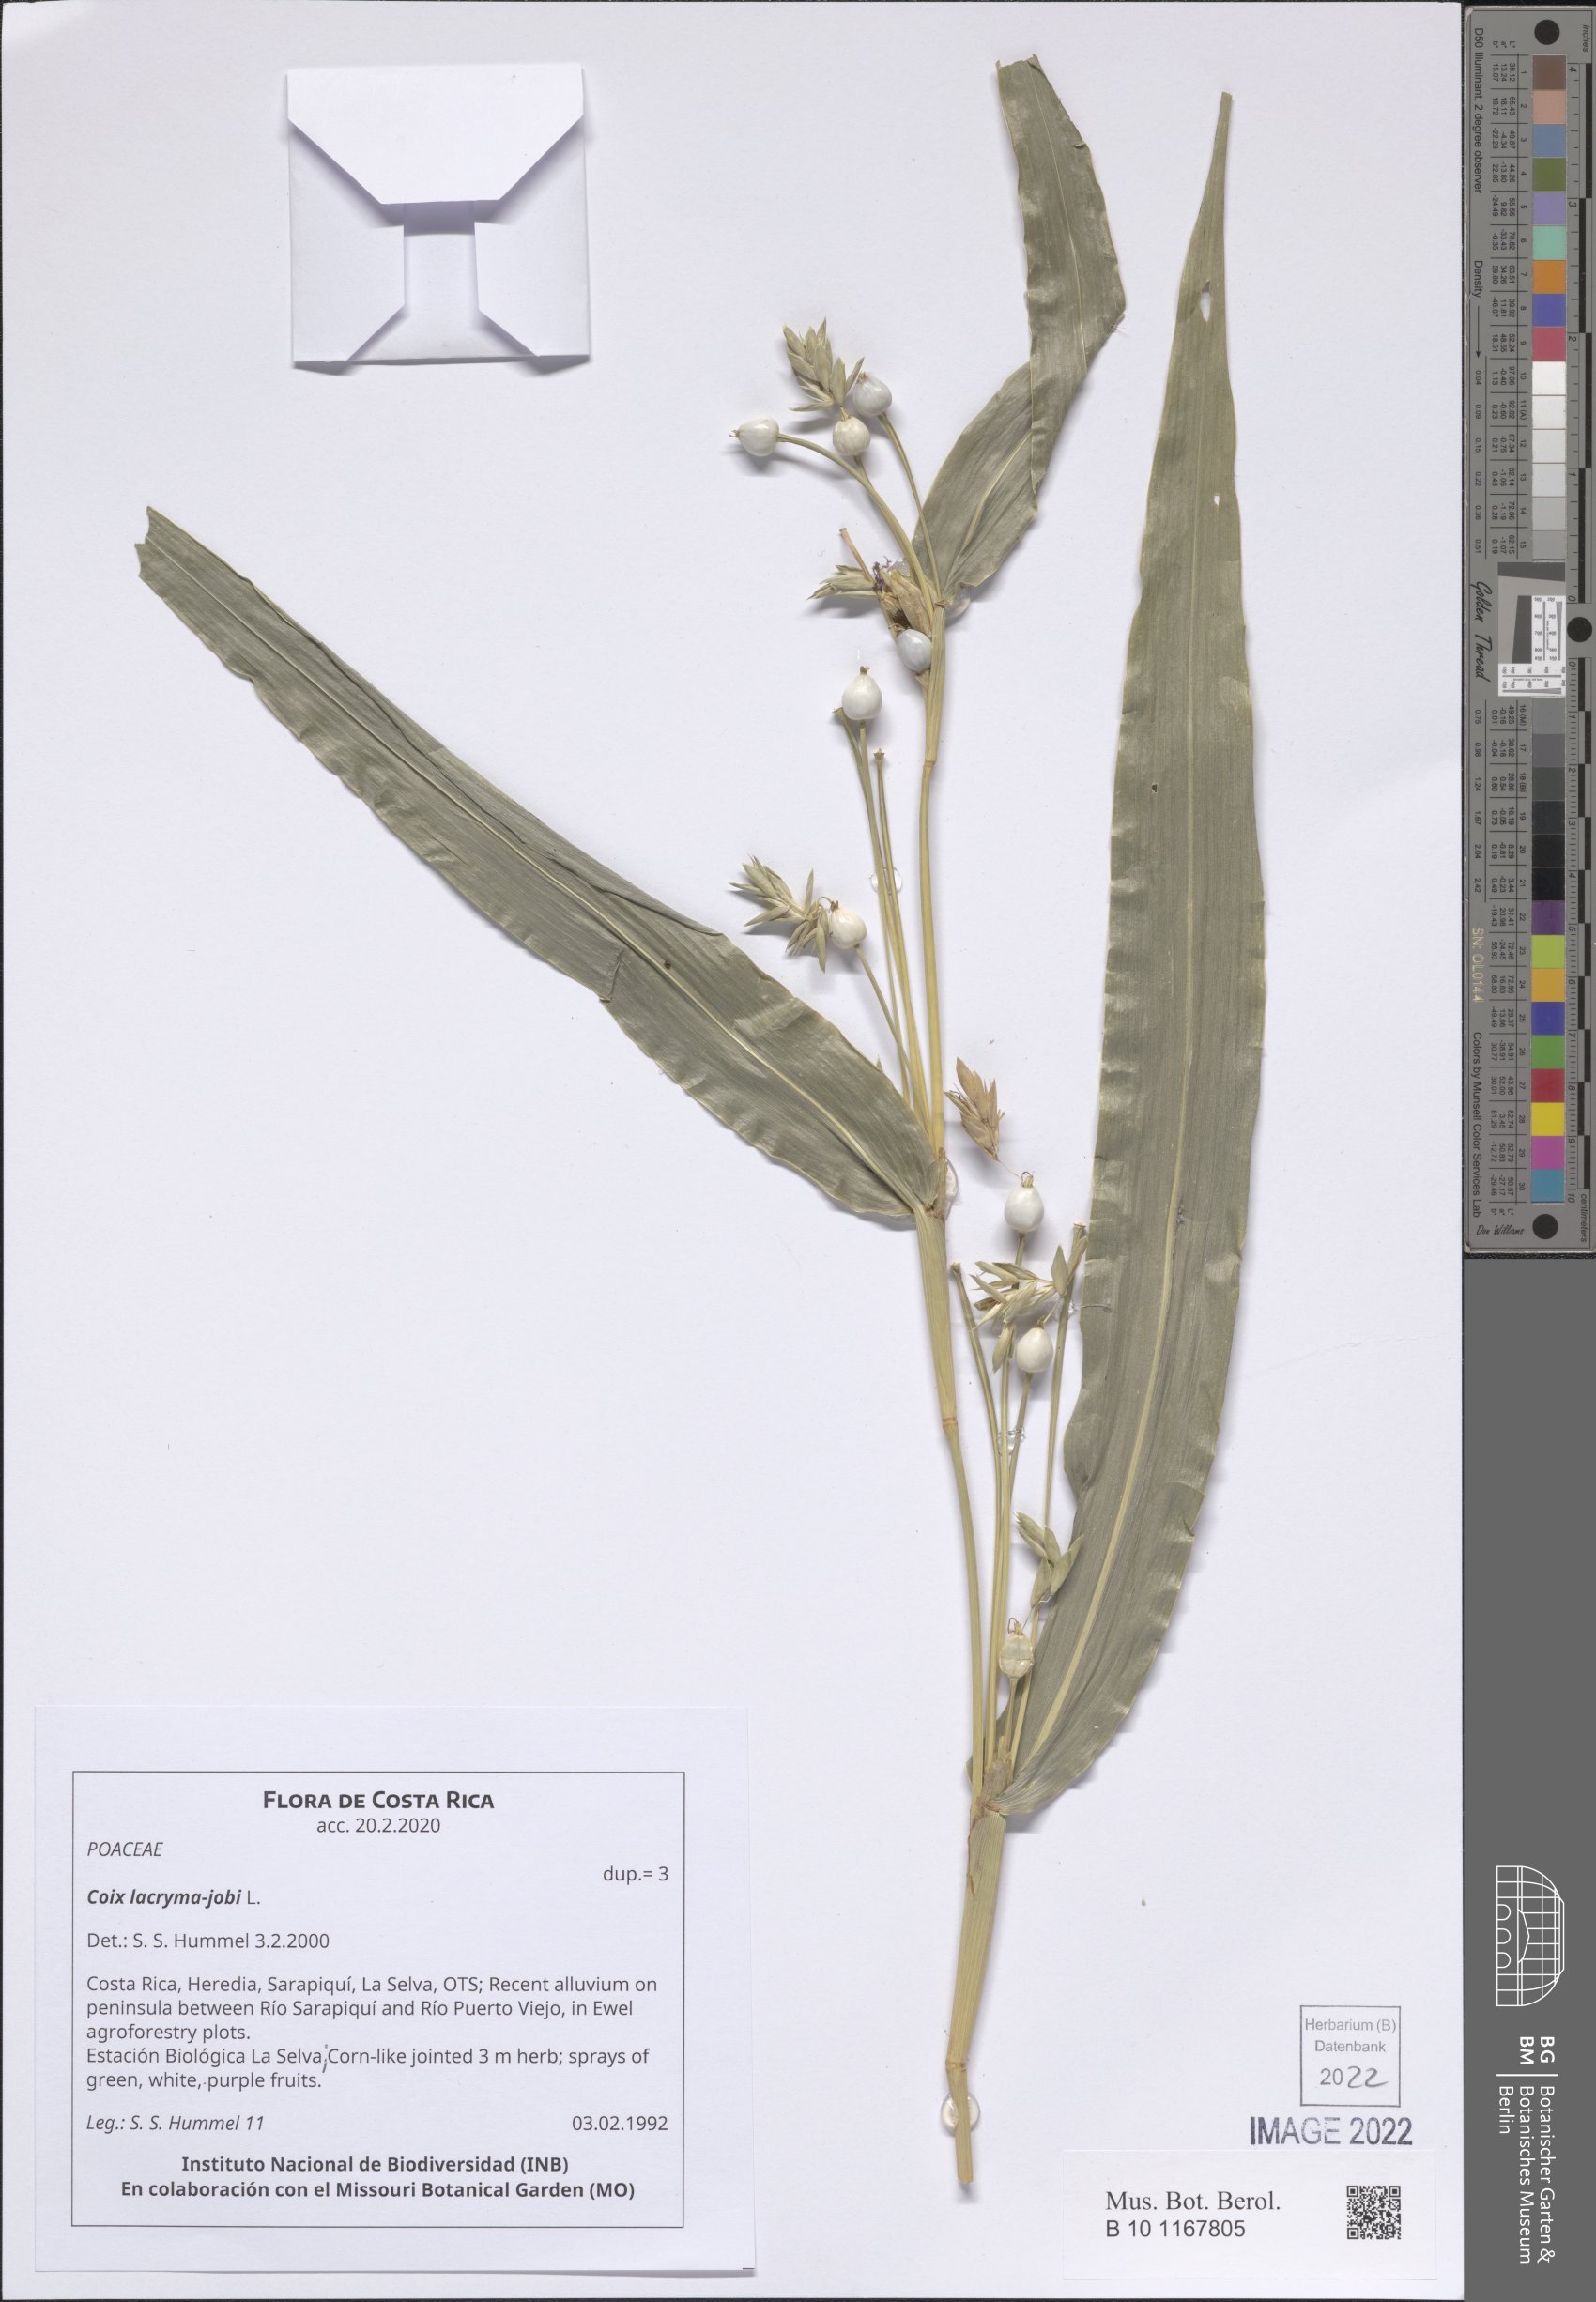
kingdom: Plantae
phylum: Tracheophyta
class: Liliopsida
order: Poales
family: Poaceae
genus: Coix
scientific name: Coix lacryma-jobi
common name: Job's tears
